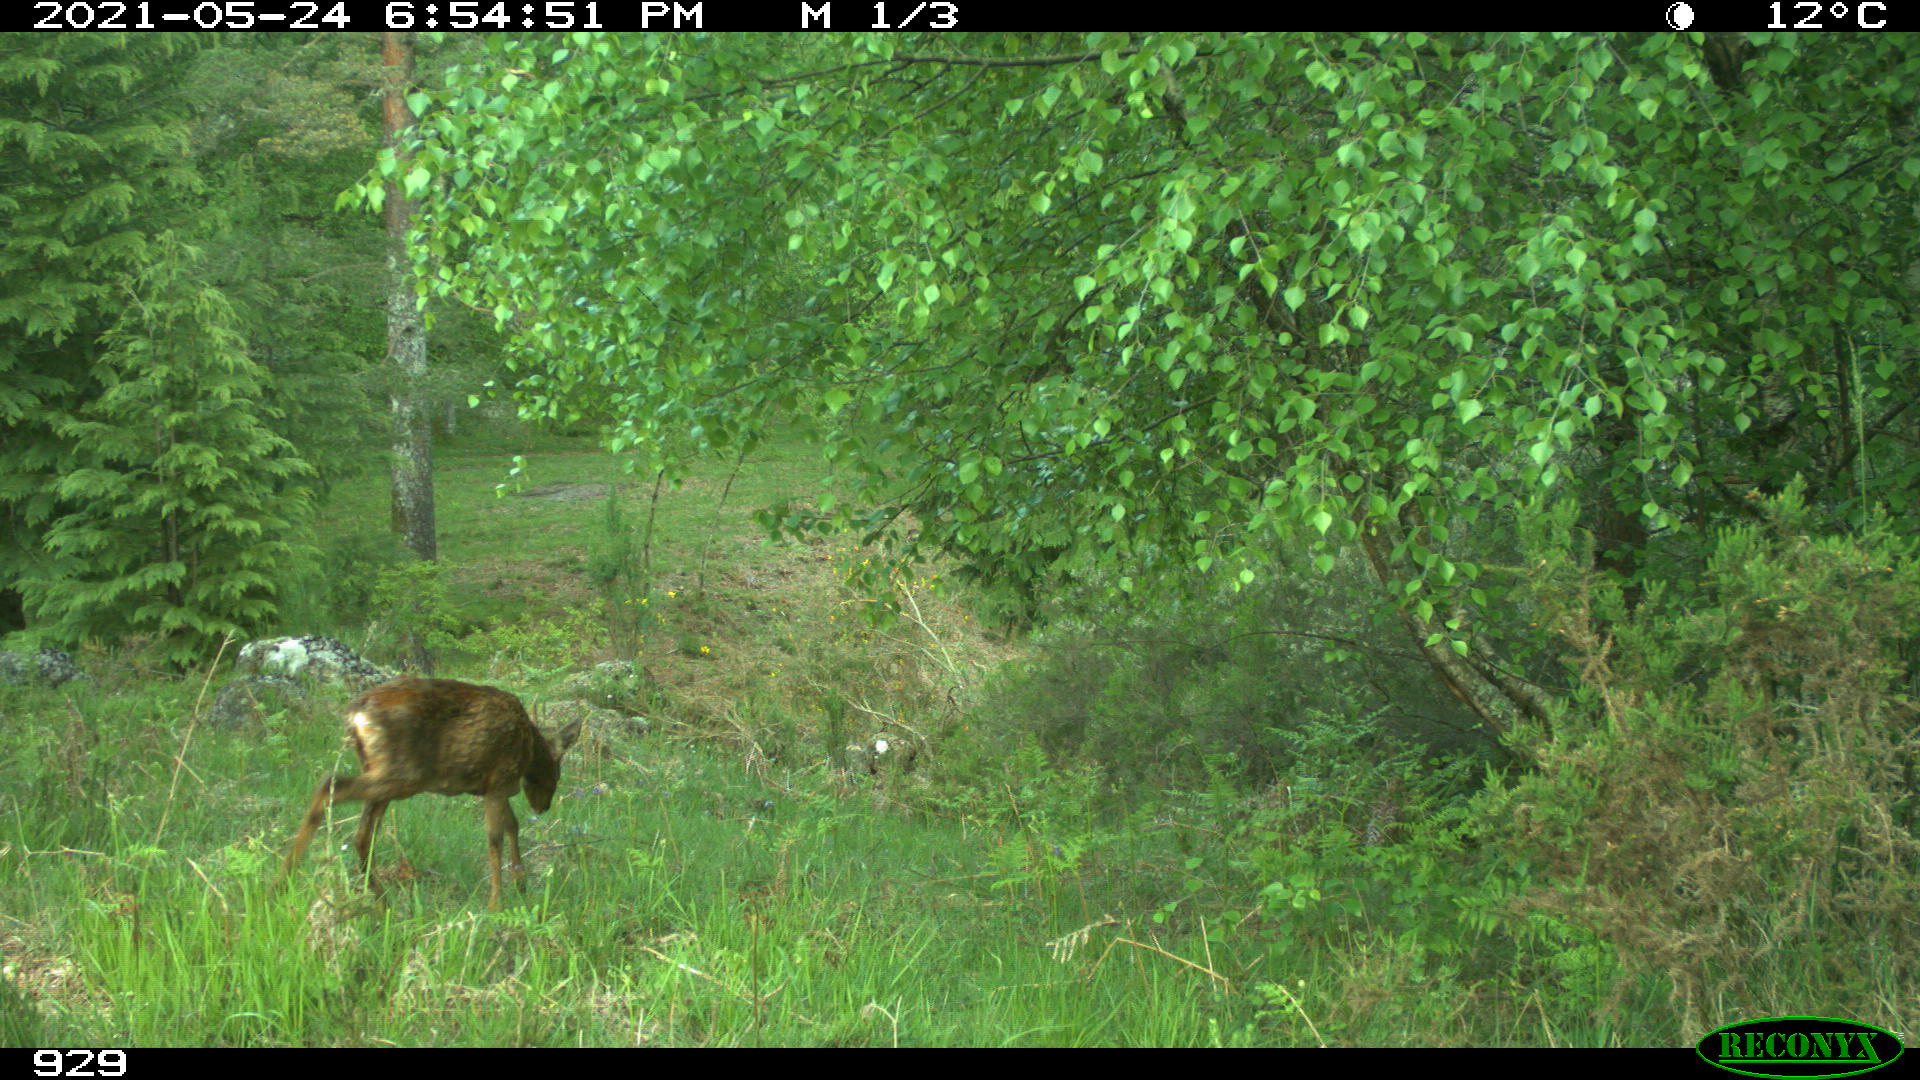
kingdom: Animalia
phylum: Chordata
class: Mammalia
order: Artiodactyla
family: Cervidae
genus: Capreolus
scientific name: Capreolus capreolus
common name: Western roe deer
